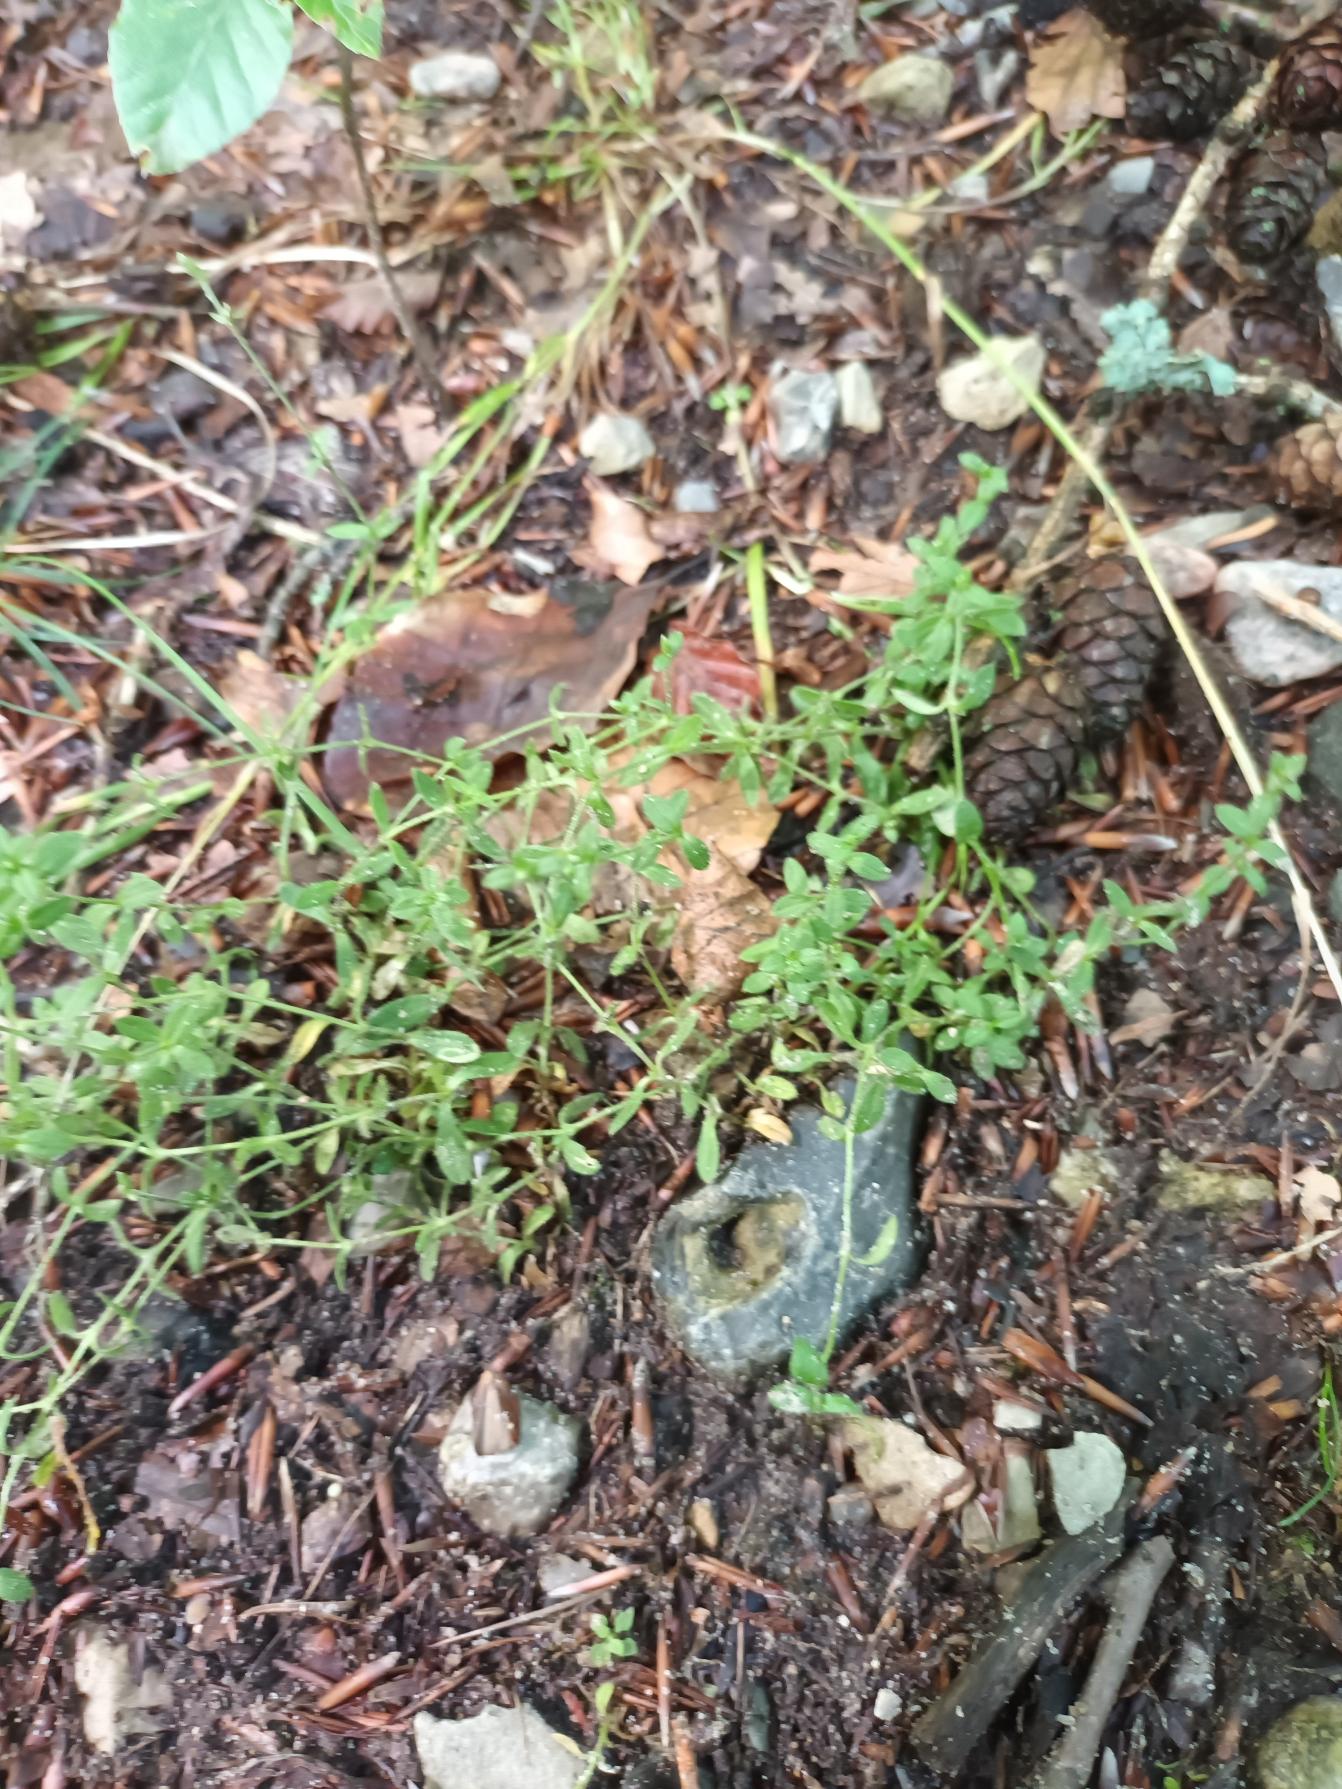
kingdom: Plantae
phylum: Tracheophyta
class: Magnoliopsida
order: Caryophyllales
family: Polygonaceae
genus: Polygonum
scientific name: Polygonum aviculare
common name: Vej-pileurt
